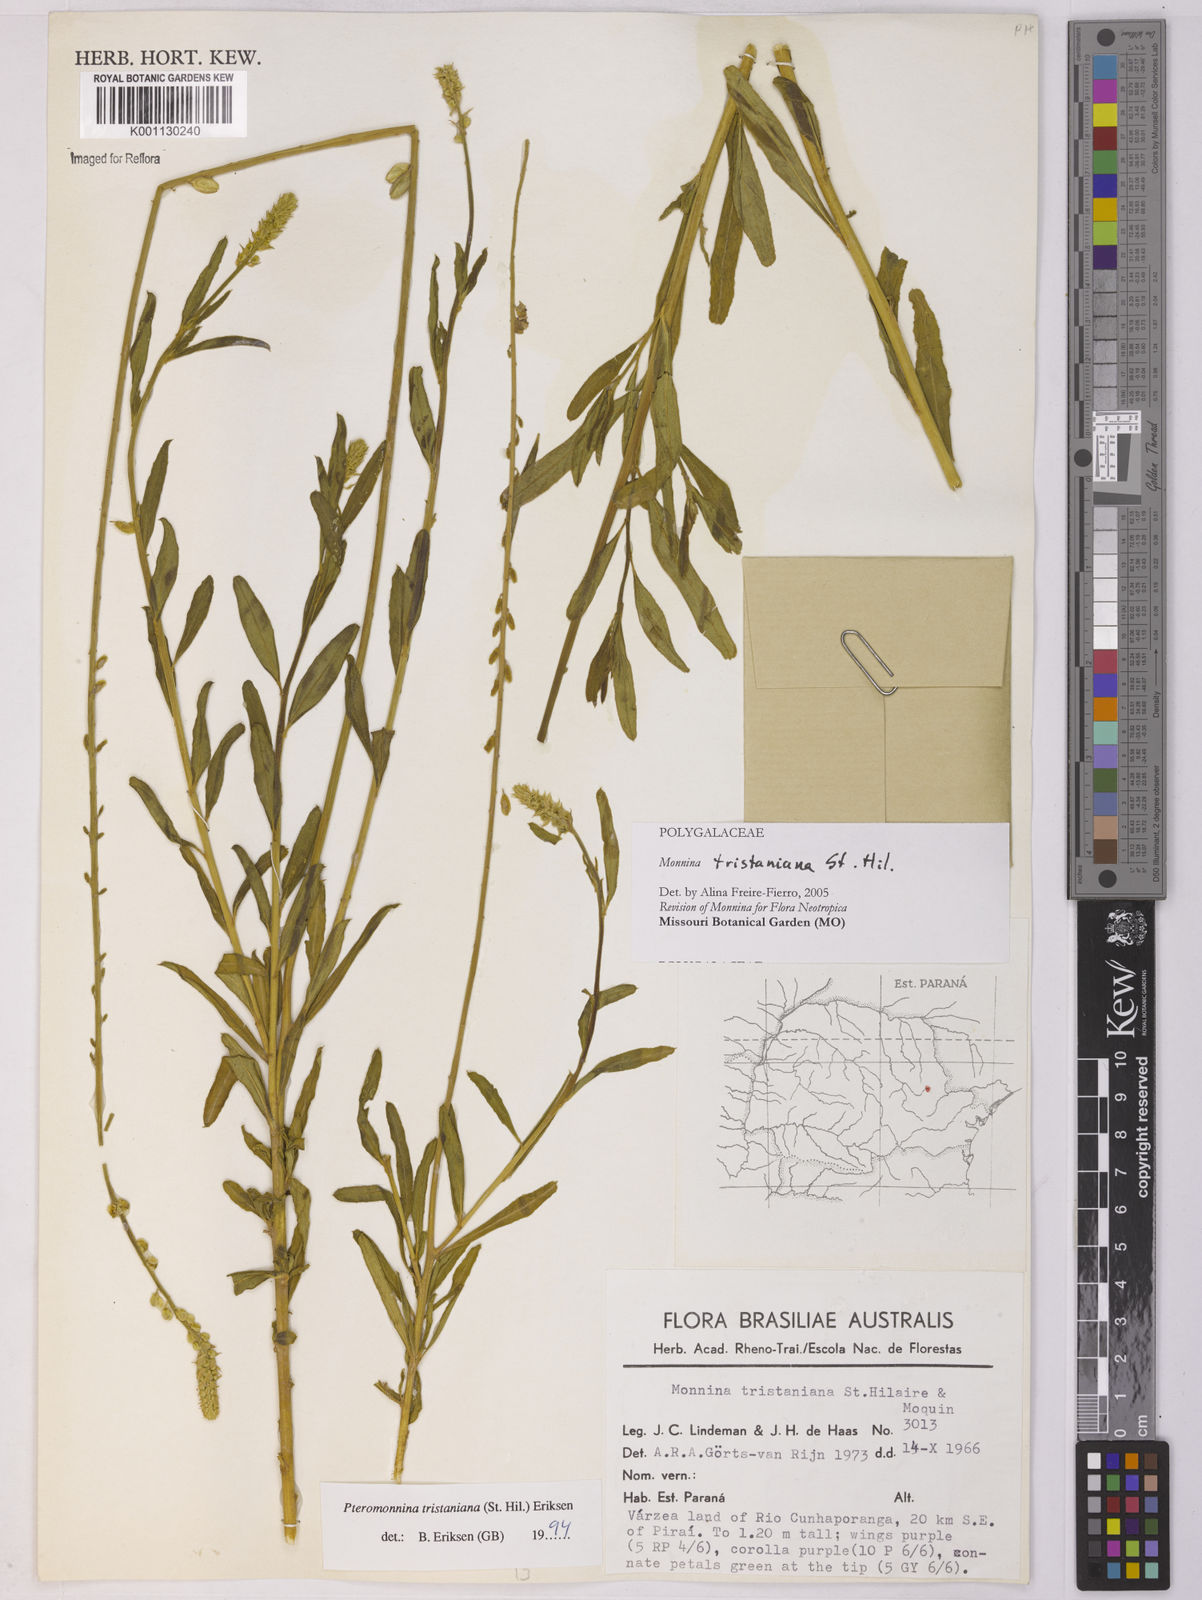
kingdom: Plantae
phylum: Tracheophyta
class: Magnoliopsida
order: Fabales
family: Polygalaceae
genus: Monnina
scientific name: Monnina tristaniana
